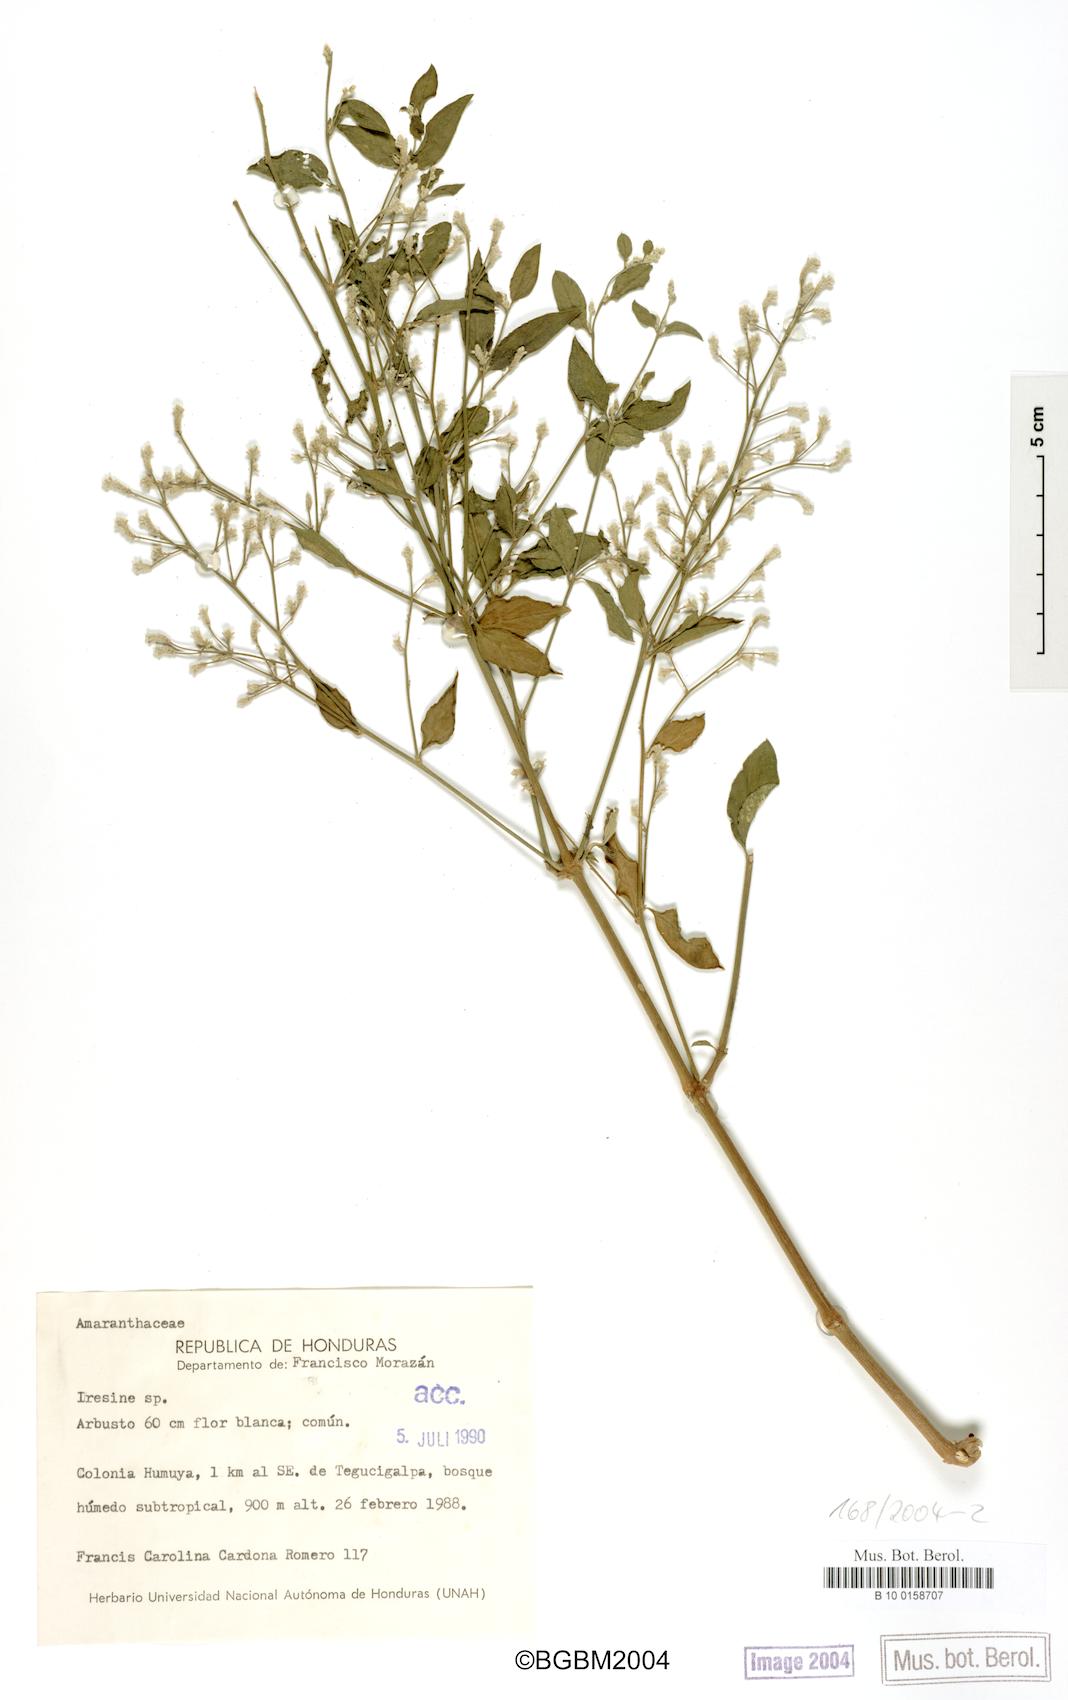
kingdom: Plantae
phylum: Tracheophyta
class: Magnoliopsida
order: Caryophyllales
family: Amaranthaceae
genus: Iresine
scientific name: Iresine
